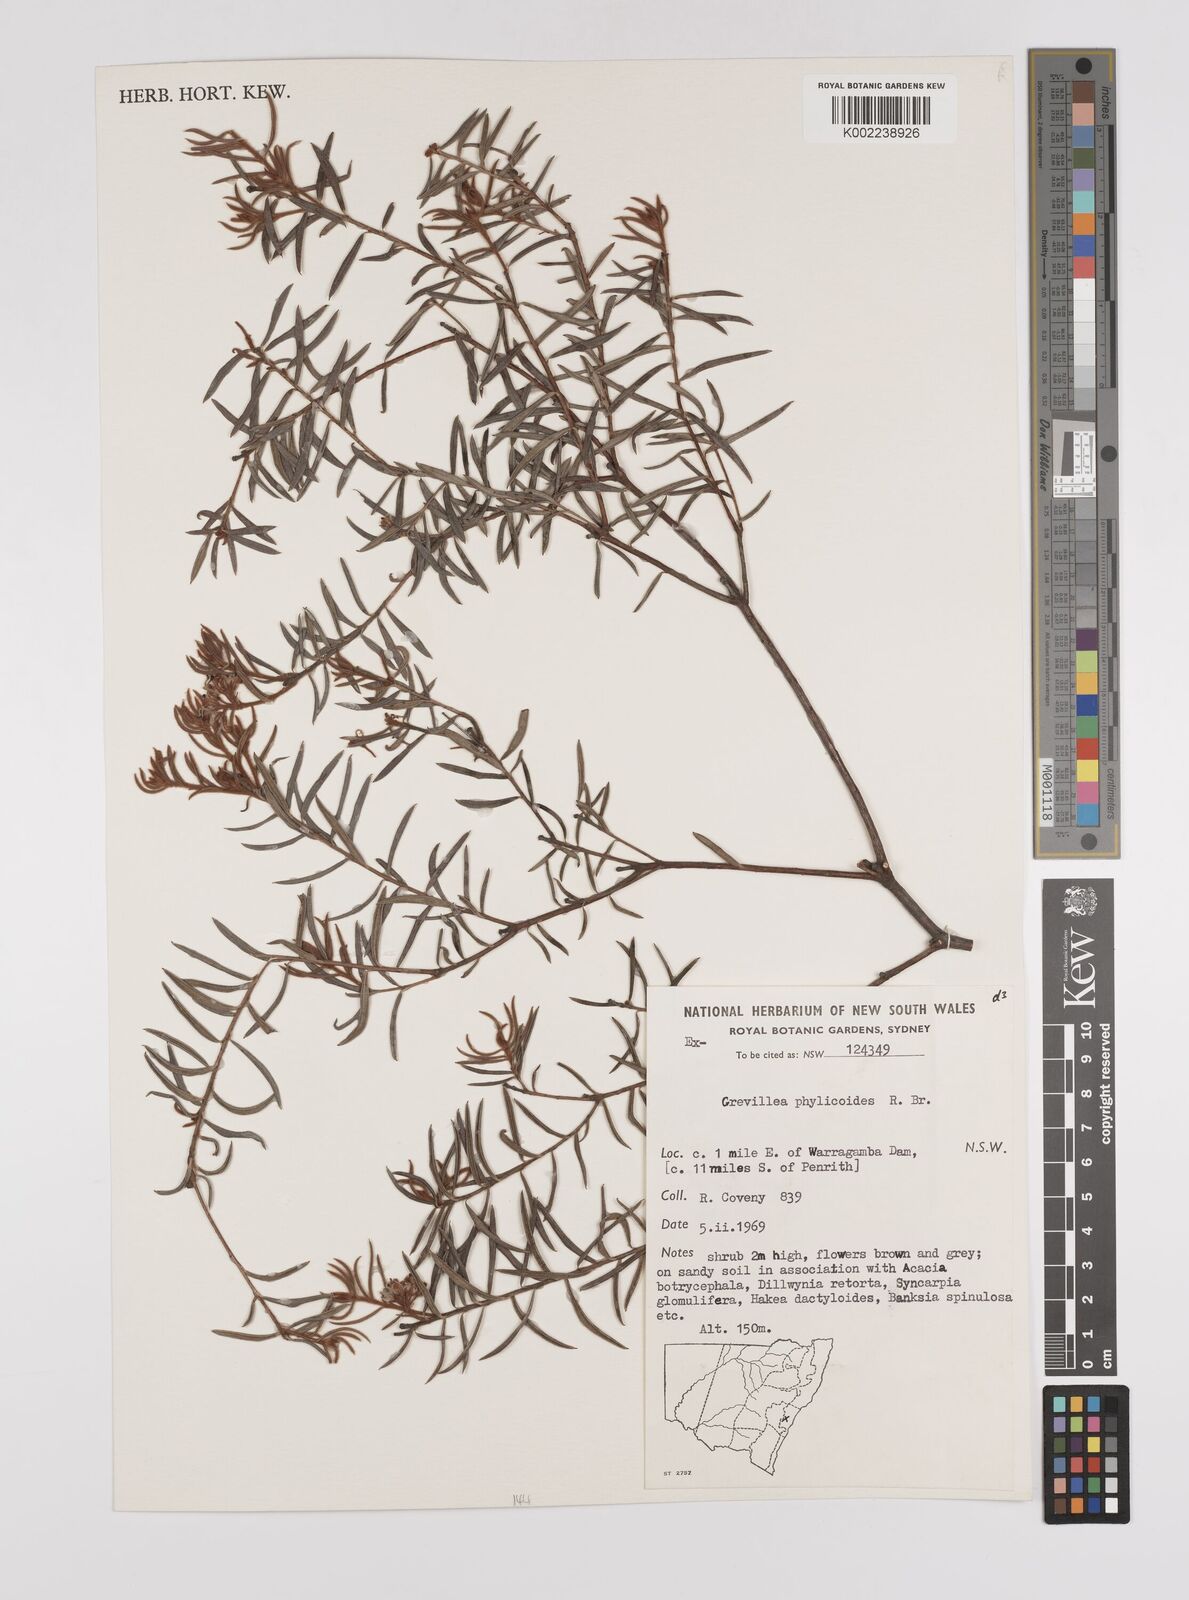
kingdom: Plantae
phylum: Tracheophyta
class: Magnoliopsida
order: Proteales
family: Proteaceae
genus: Grevillea
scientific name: Grevillea phylicoides
